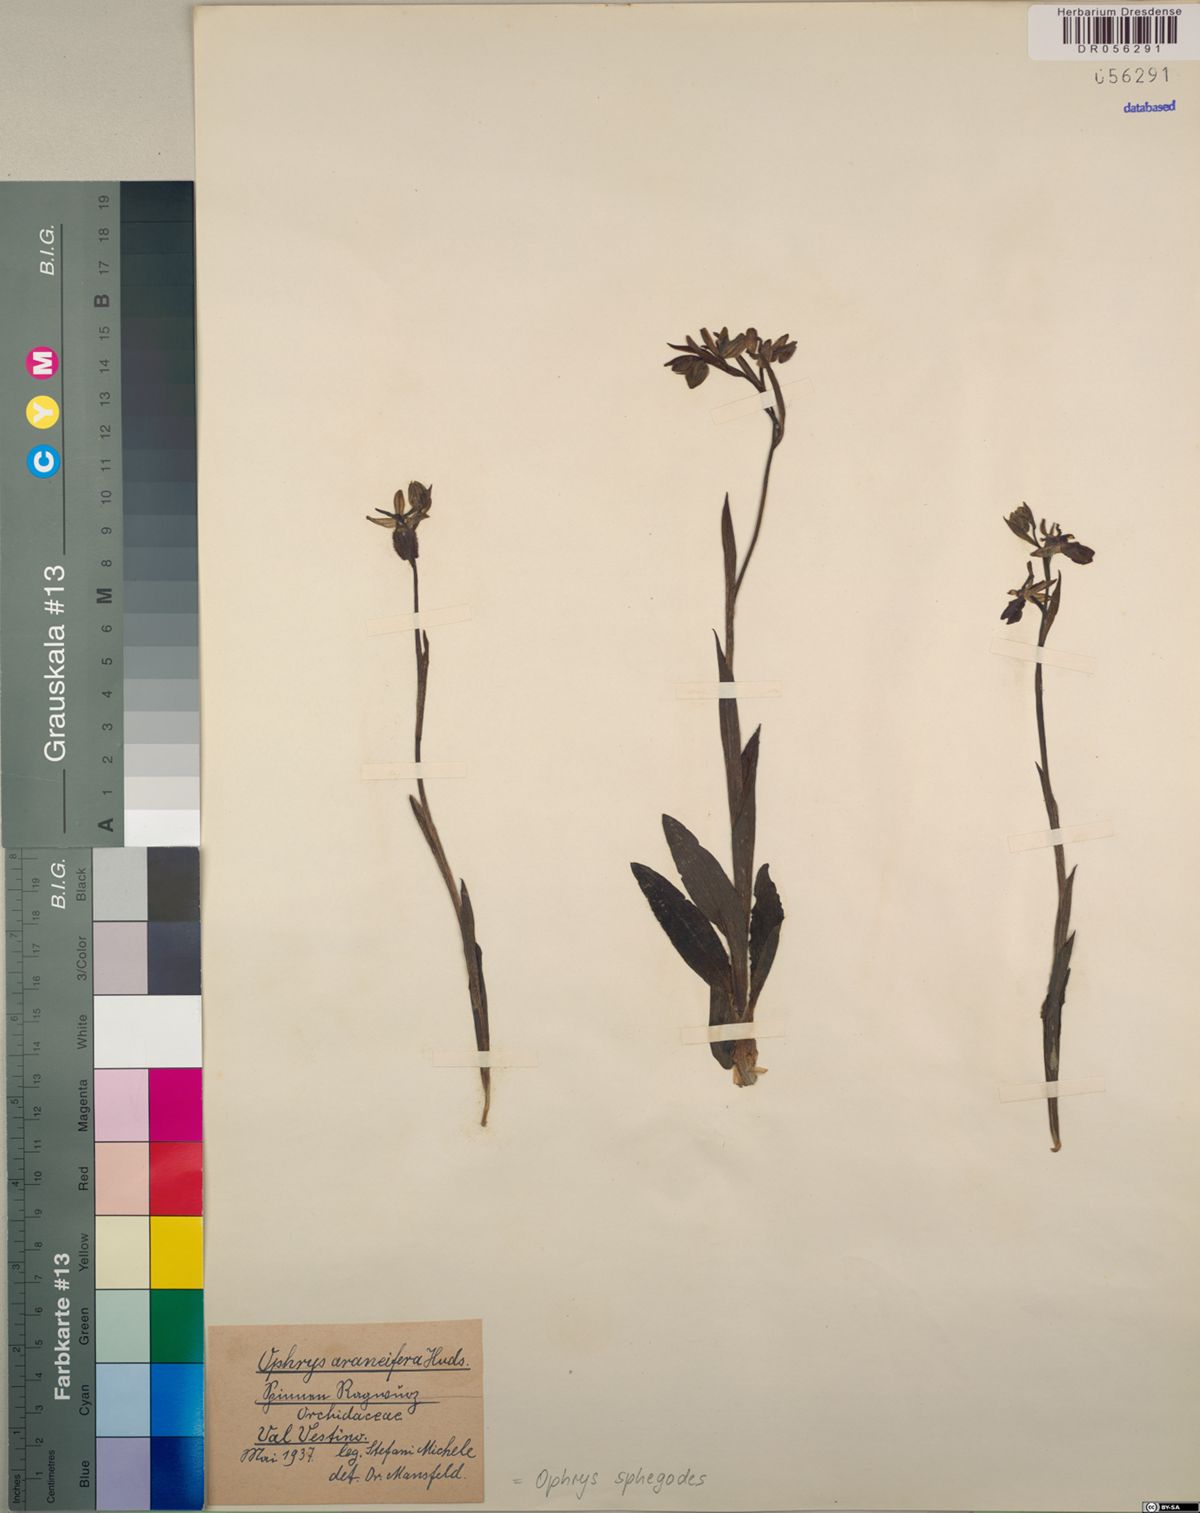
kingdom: Plantae
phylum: Tracheophyta
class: Liliopsida
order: Asparagales
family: Orchidaceae
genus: Ophrys
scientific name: Ophrys sphegodes
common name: Early spider-orchid
